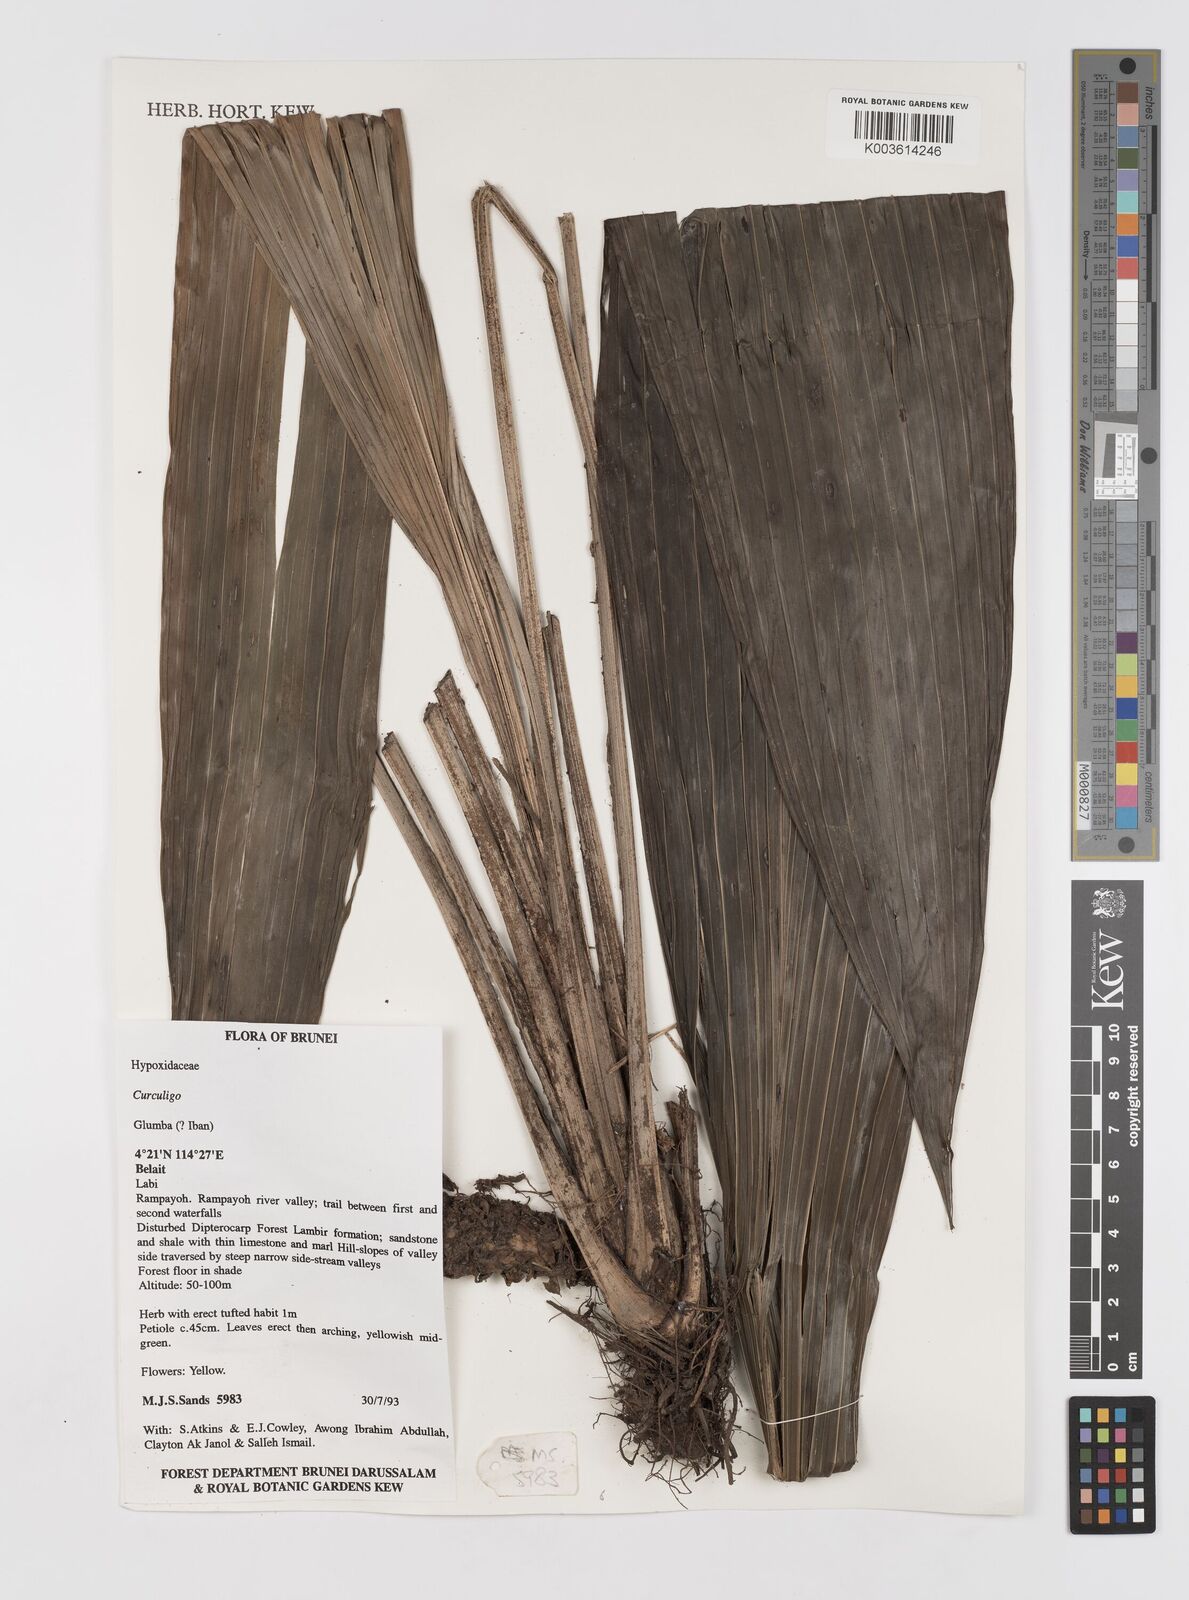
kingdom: Plantae
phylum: Tracheophyta
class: Liliopsida
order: Asparagales
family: Hypoxidaceae
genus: Curculigo
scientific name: Curculigo
